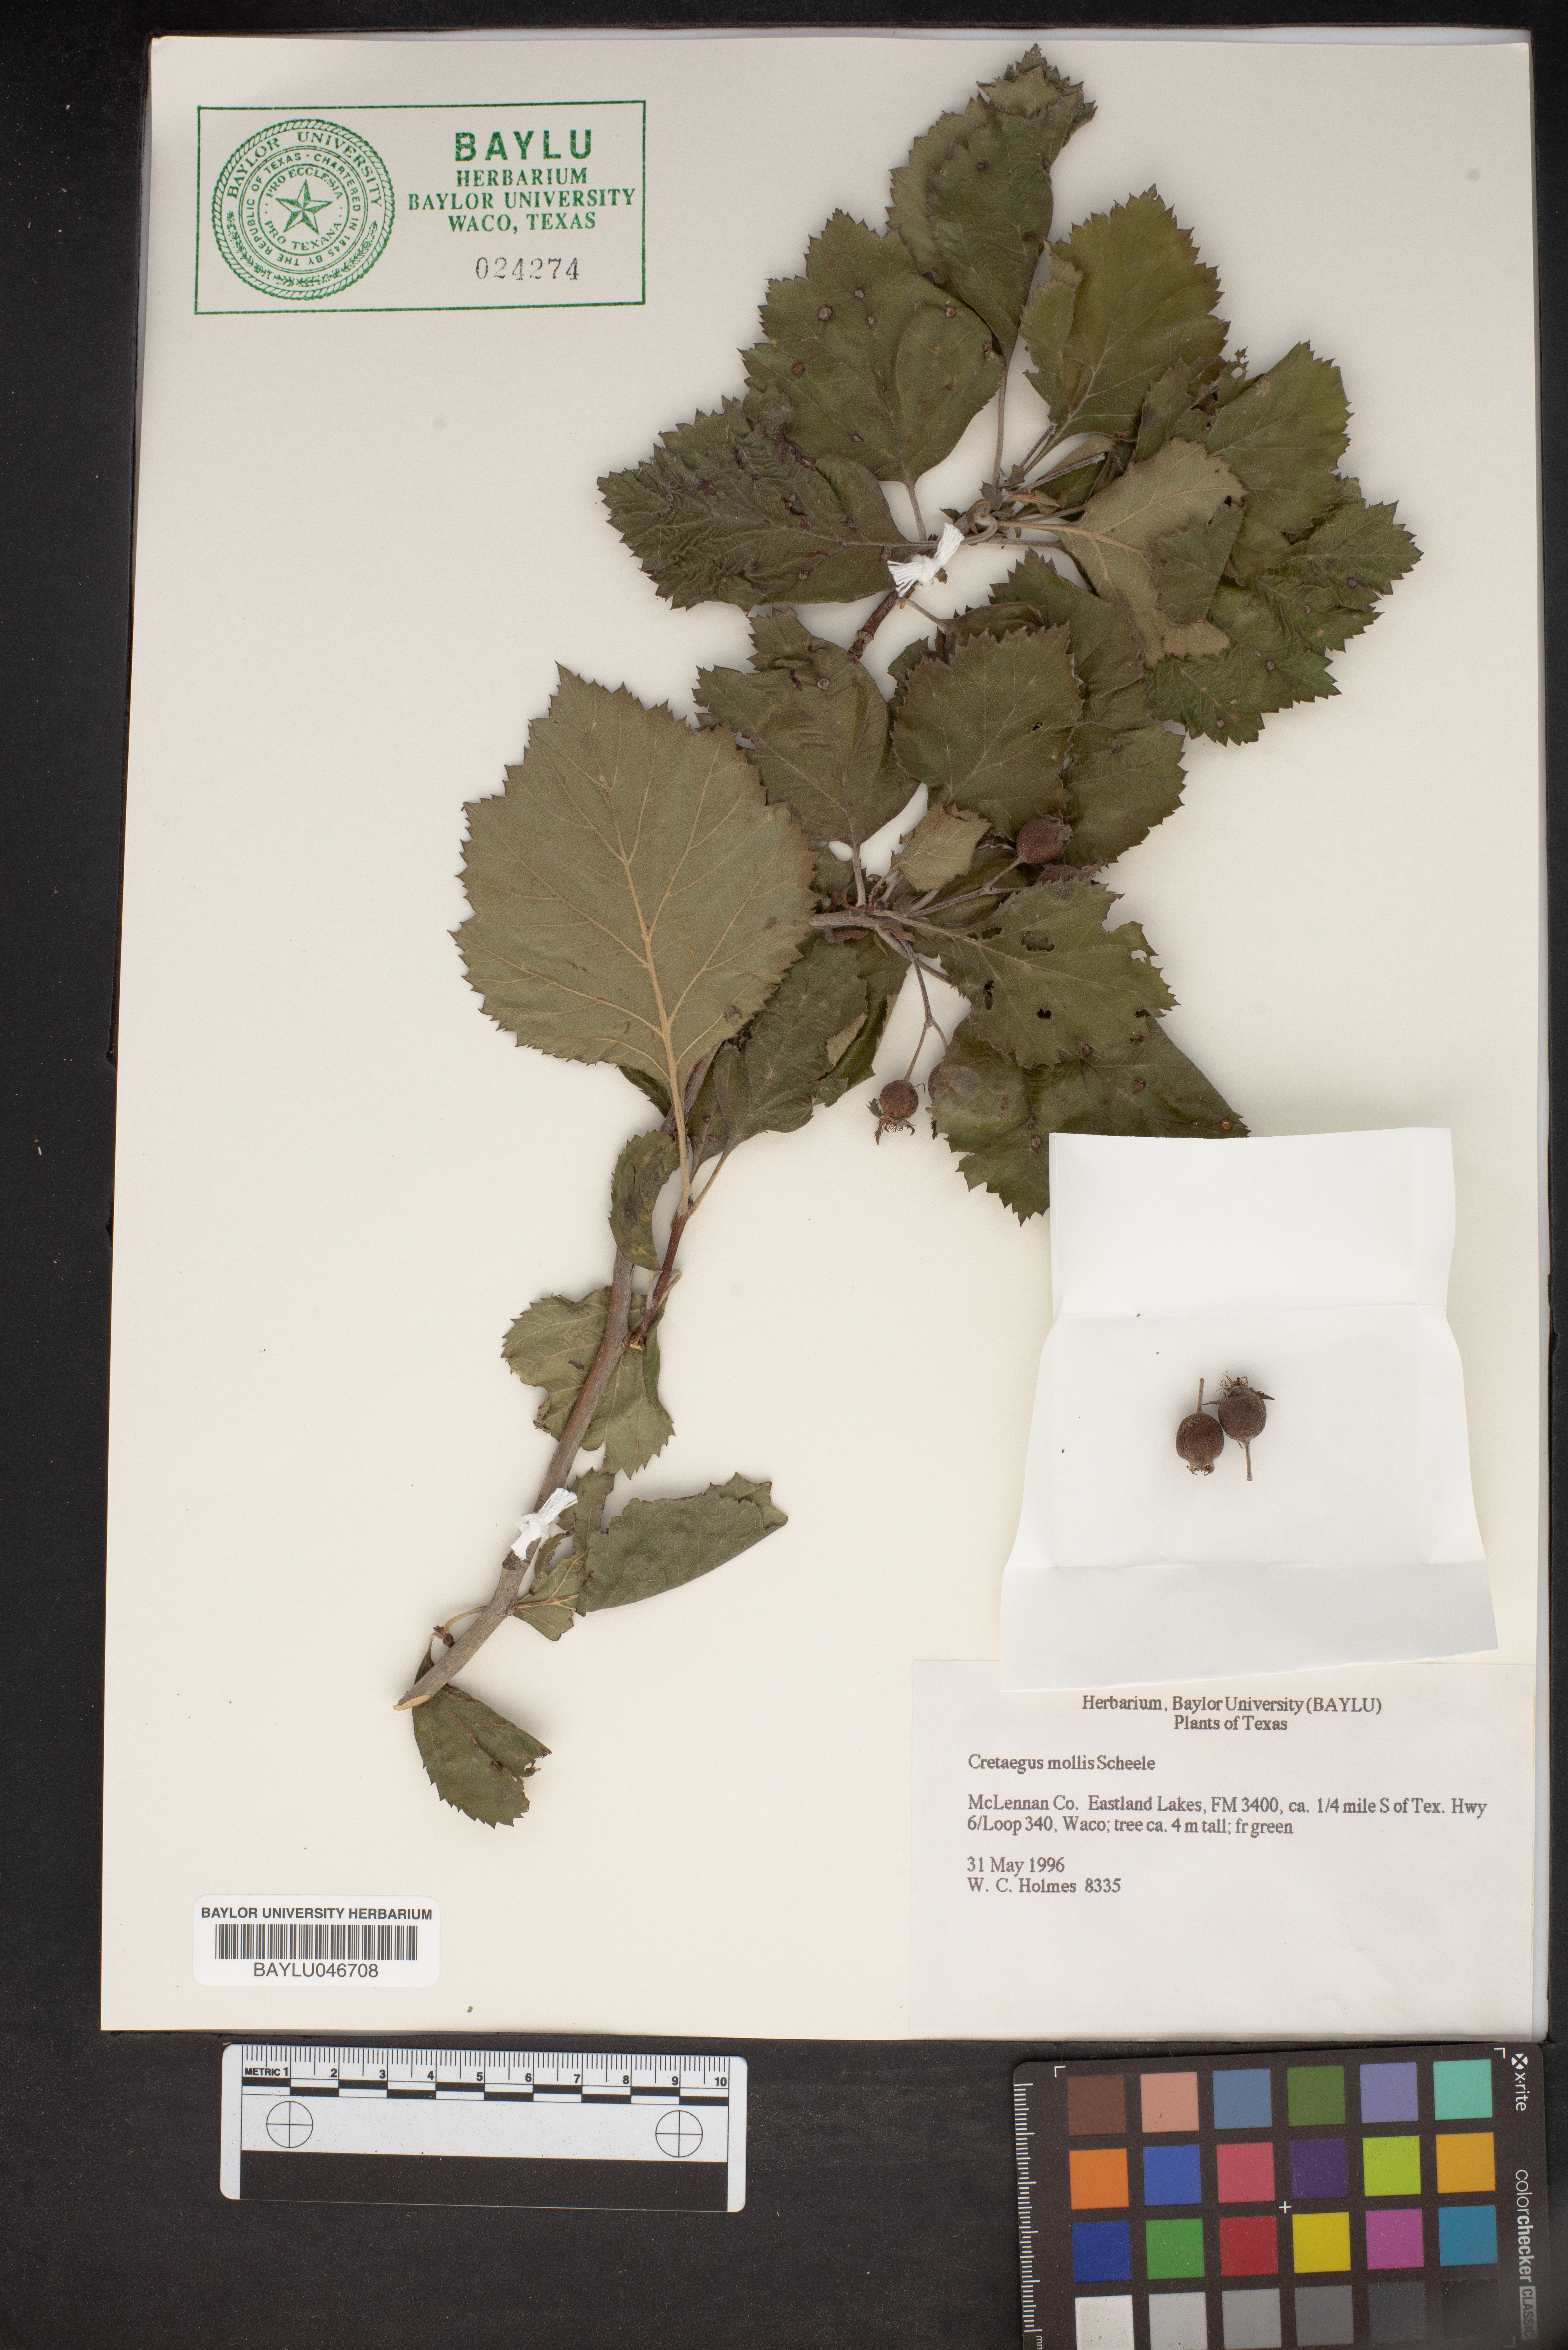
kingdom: Plantae
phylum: Tracheophyta
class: Magnoliopsida
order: Rosales
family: Rosaceae
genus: Crataegus
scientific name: Crataegus mollis
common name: Downy hawthorn
